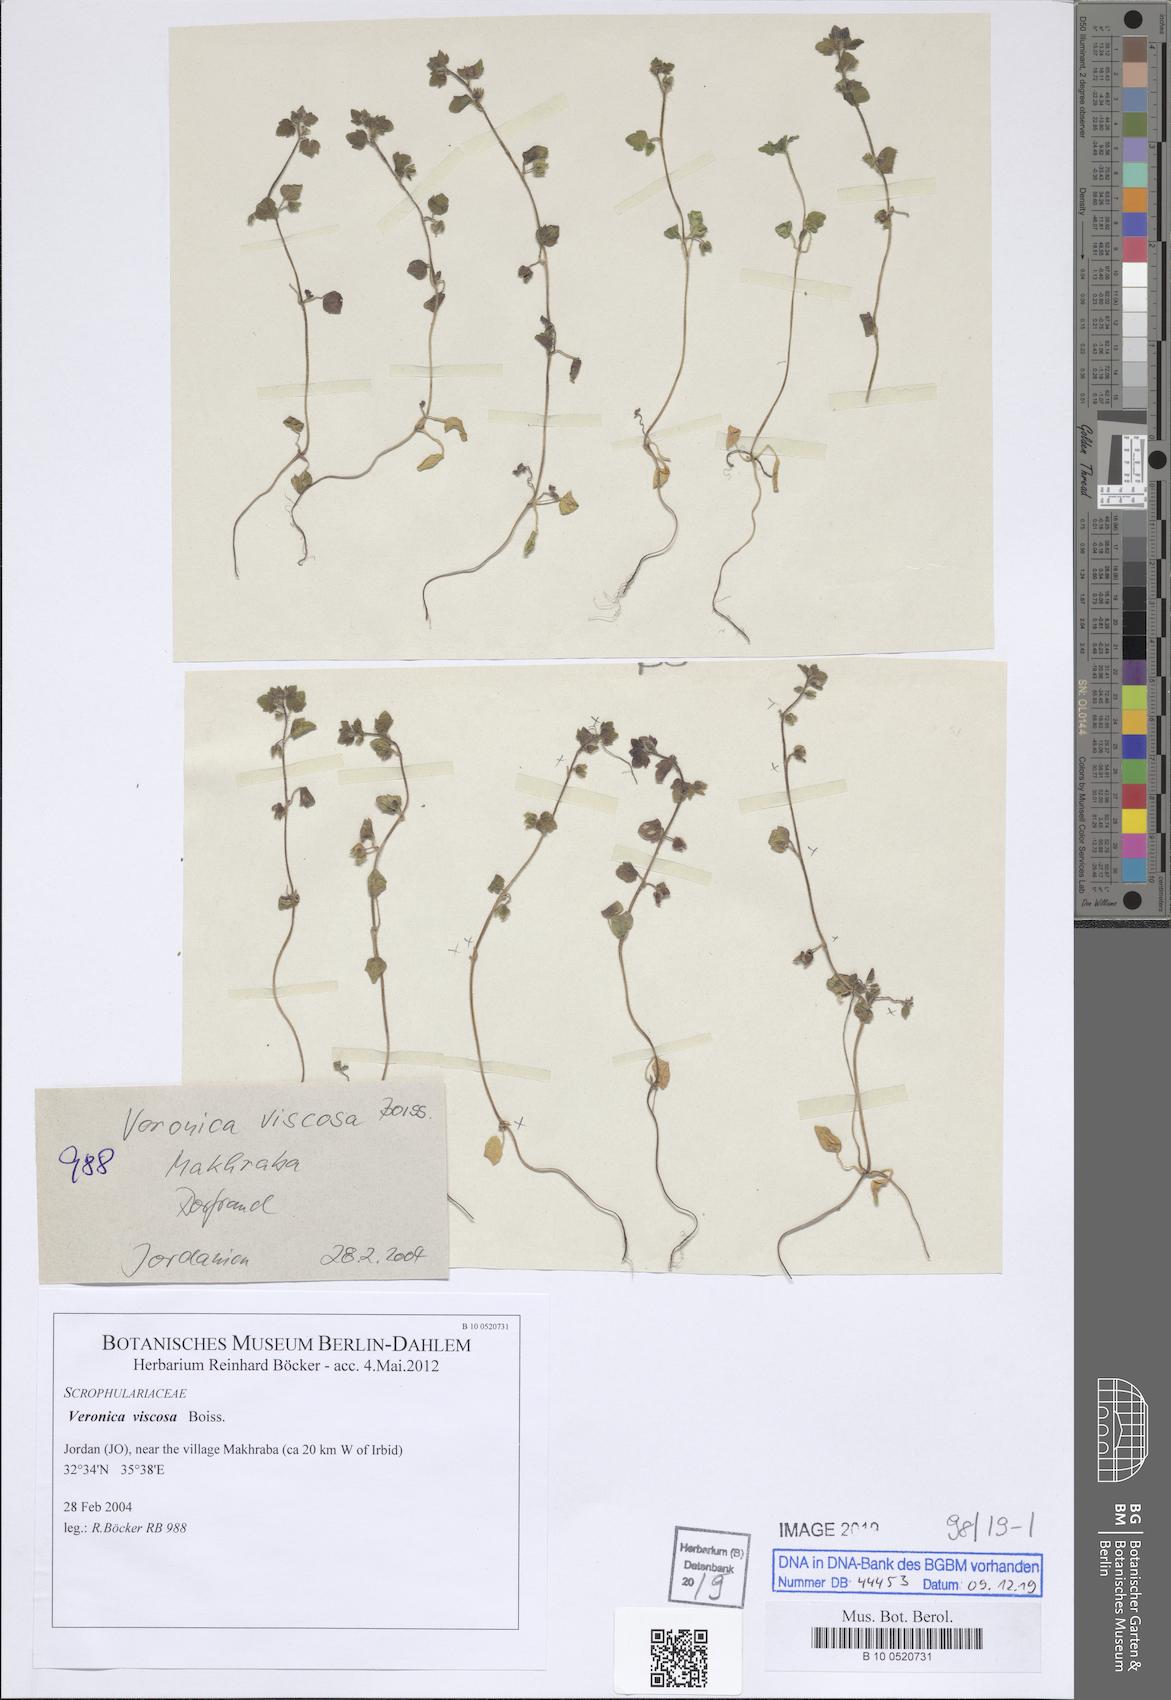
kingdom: Plantae
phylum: Tracheophyta
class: Magnoliopsida
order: Lamiales
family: Plantaginaceae
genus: Veronica
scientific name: Veronica viscosa
